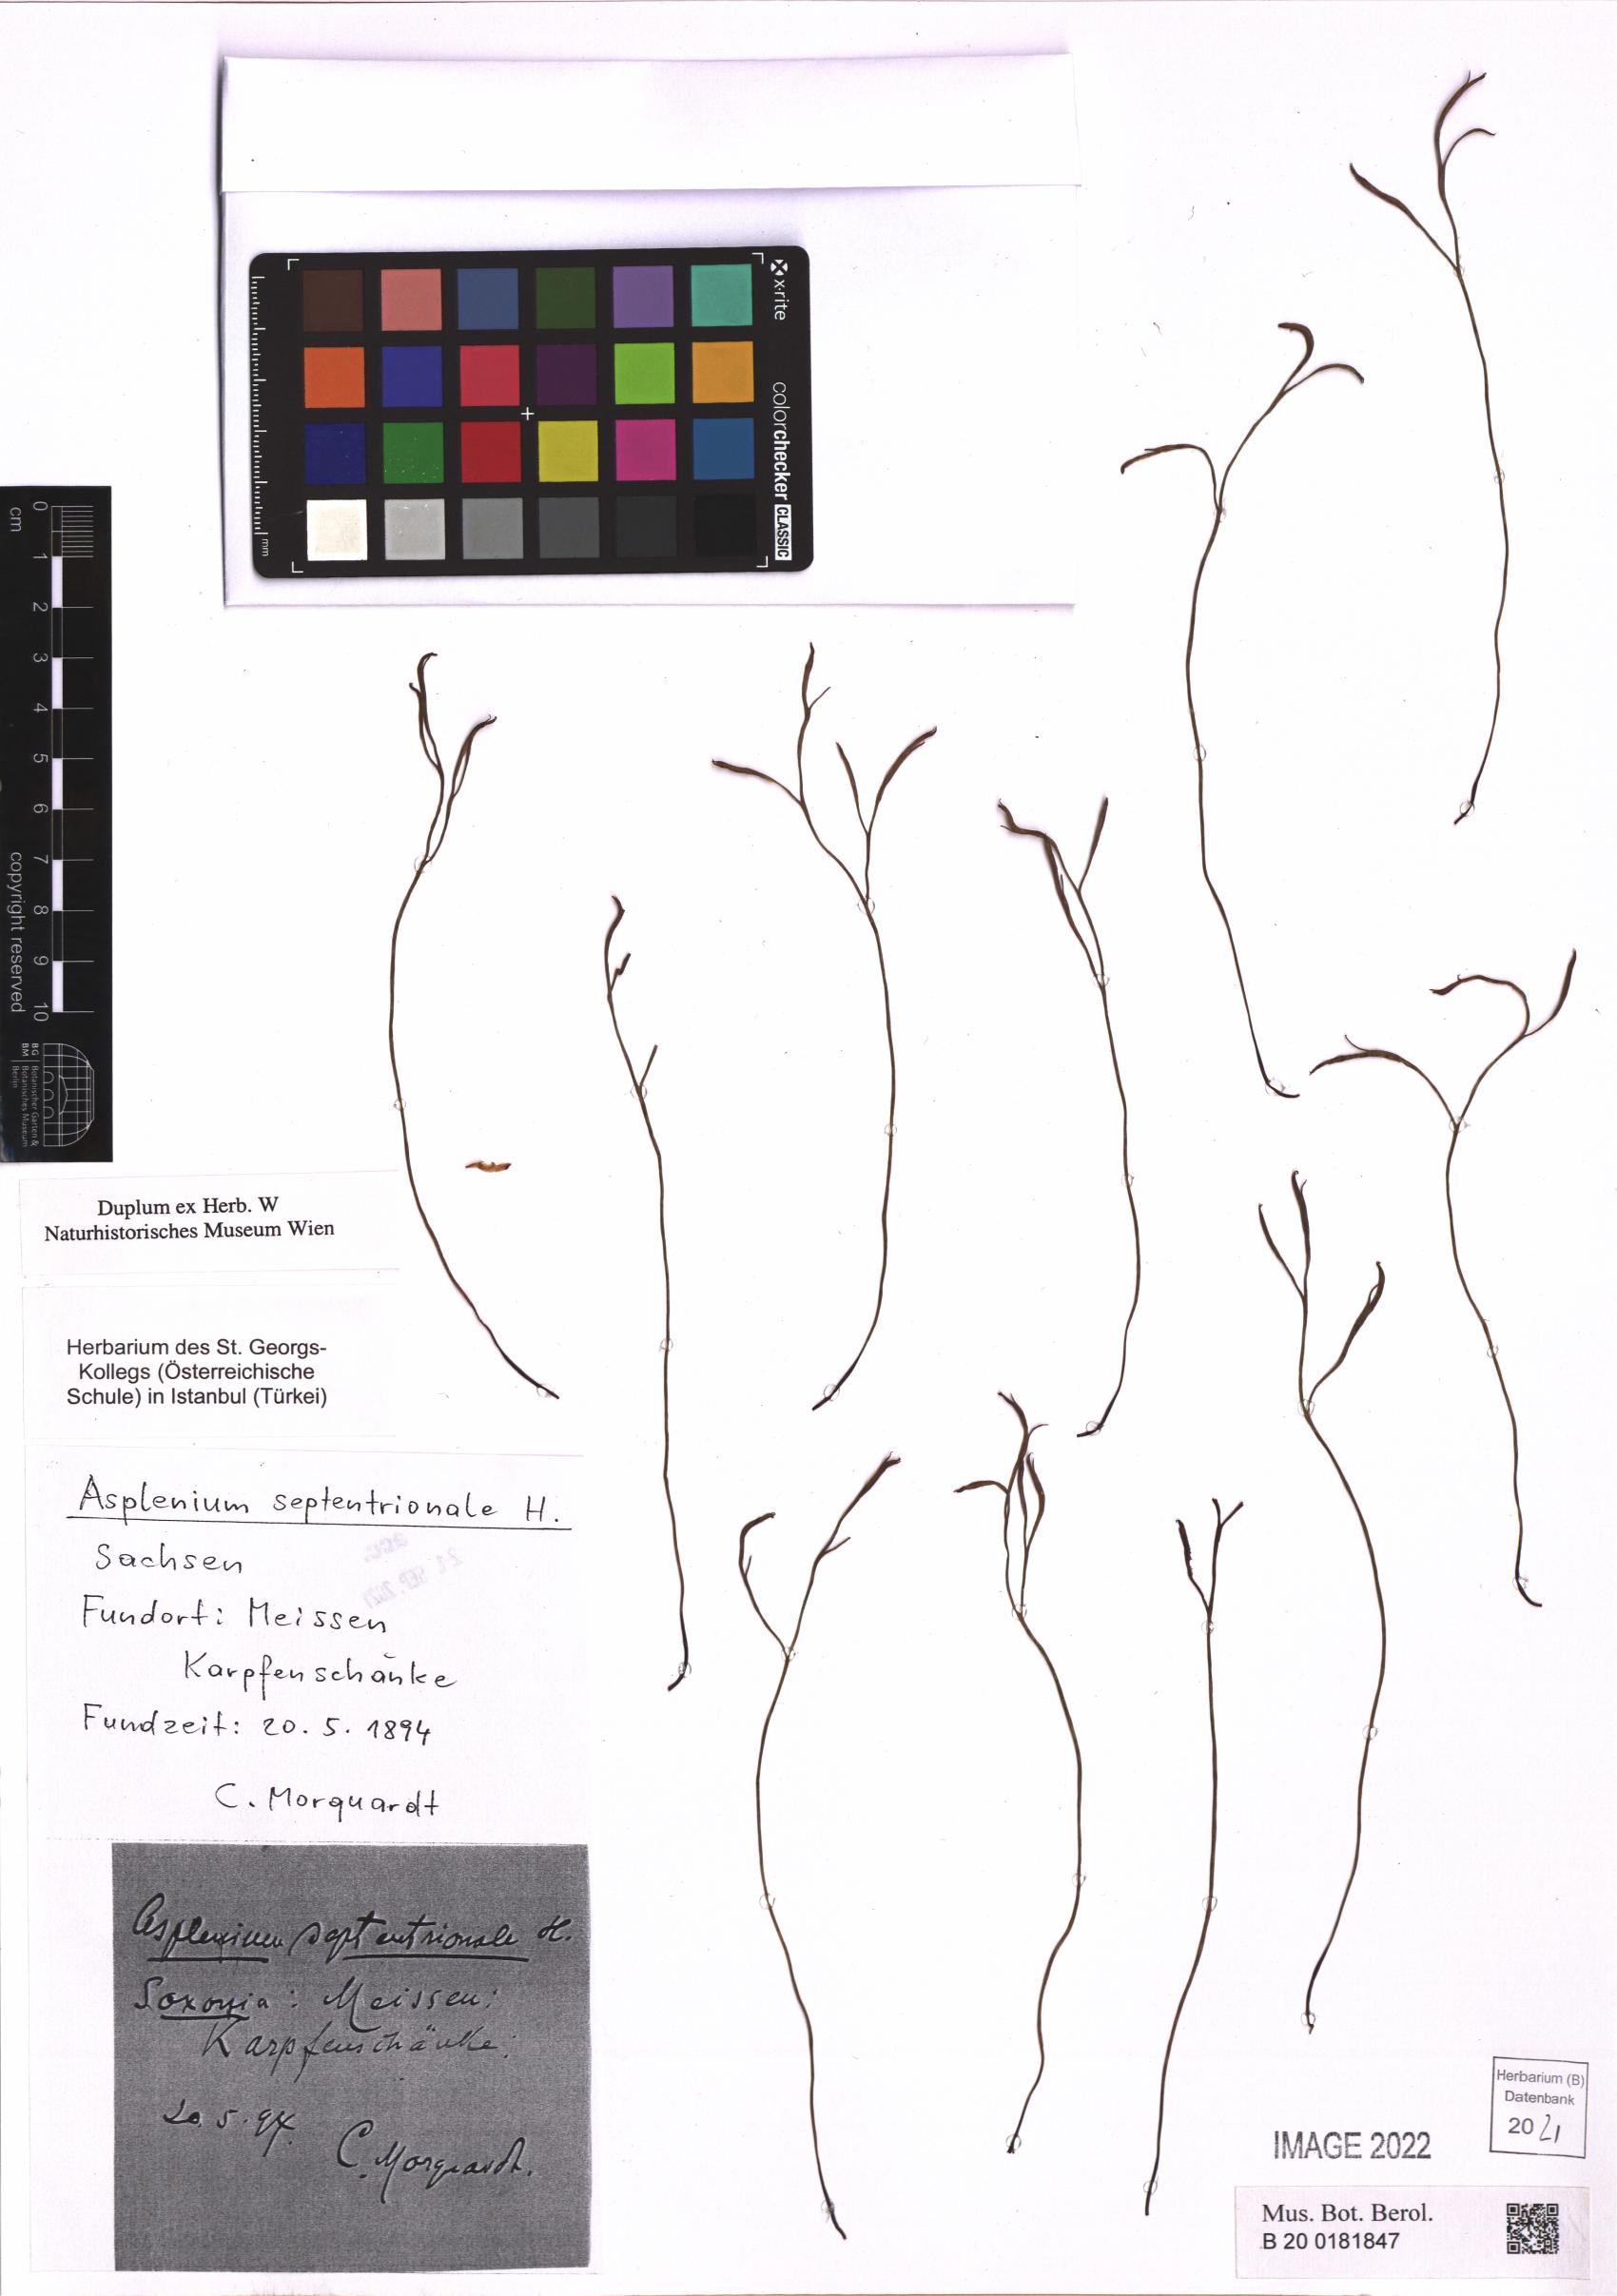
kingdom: Plantae
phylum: Tracheophyta
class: Polypodiopsida
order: Polypodiales
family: Aspleniaceae
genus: Asplenium
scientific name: Asplenium septentrionale
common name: Forked spleenwort
